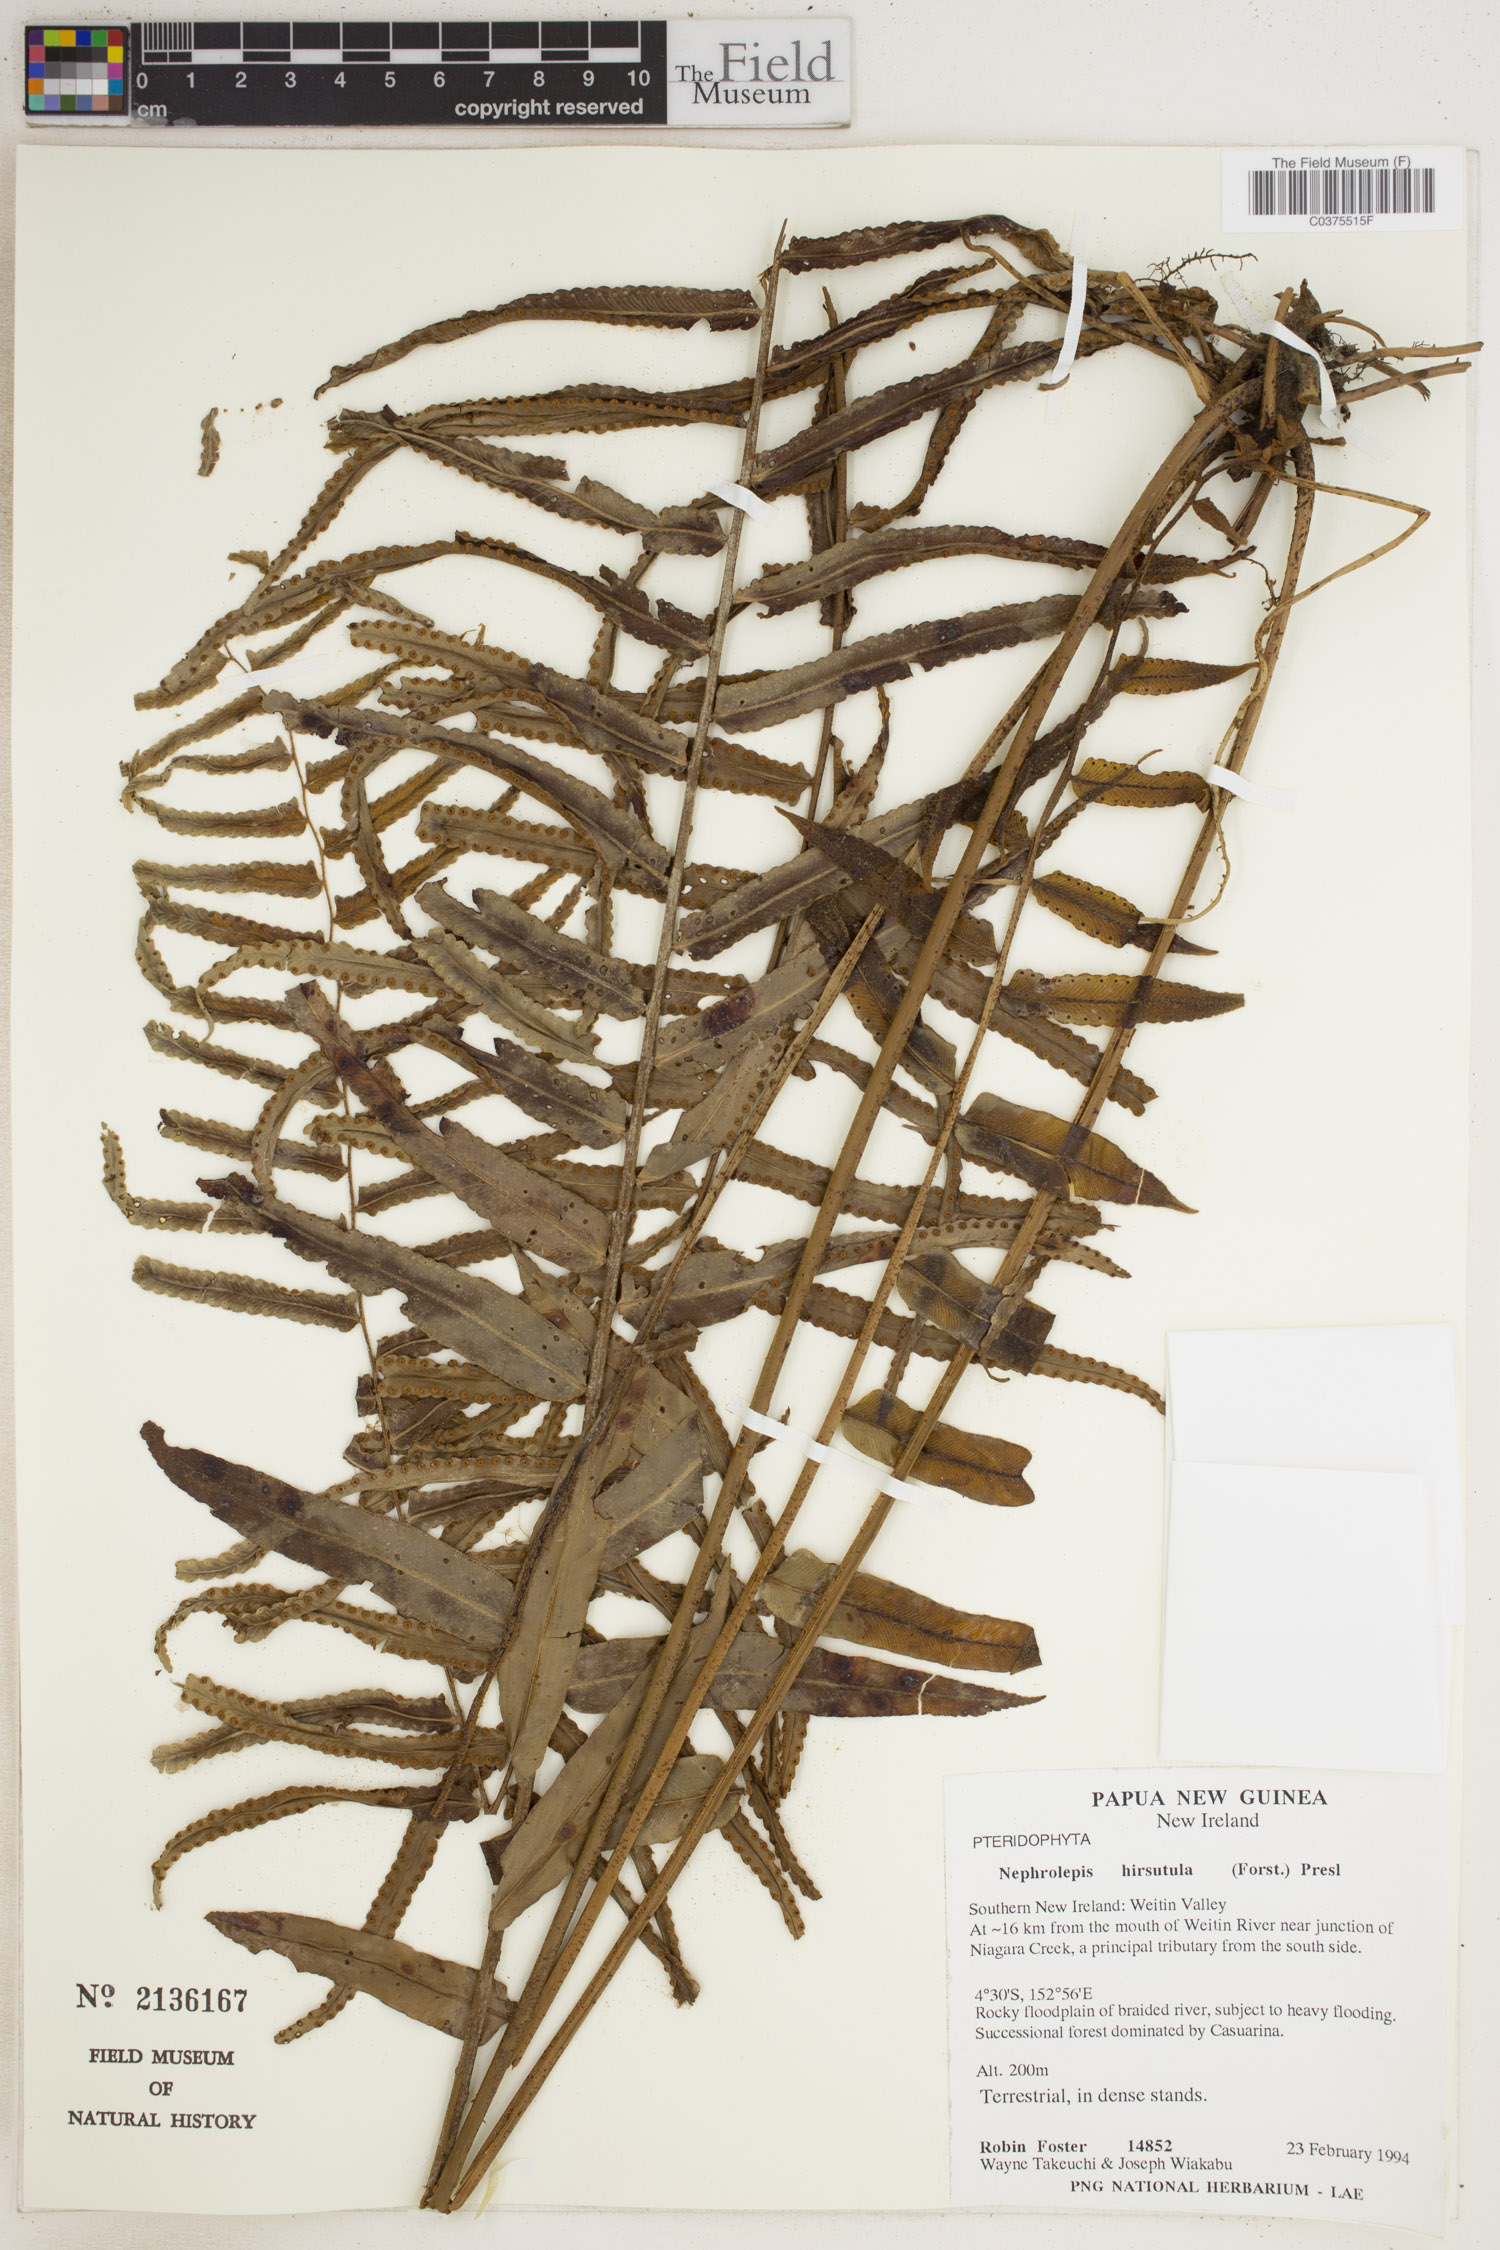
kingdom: Plantae
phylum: Tracheophyta
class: Polypodiopsida
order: Polypodiales
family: Nephrolepidaceae
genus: Nephrolepis
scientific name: Nephrolepis hirsutula
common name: Asian sword fern
